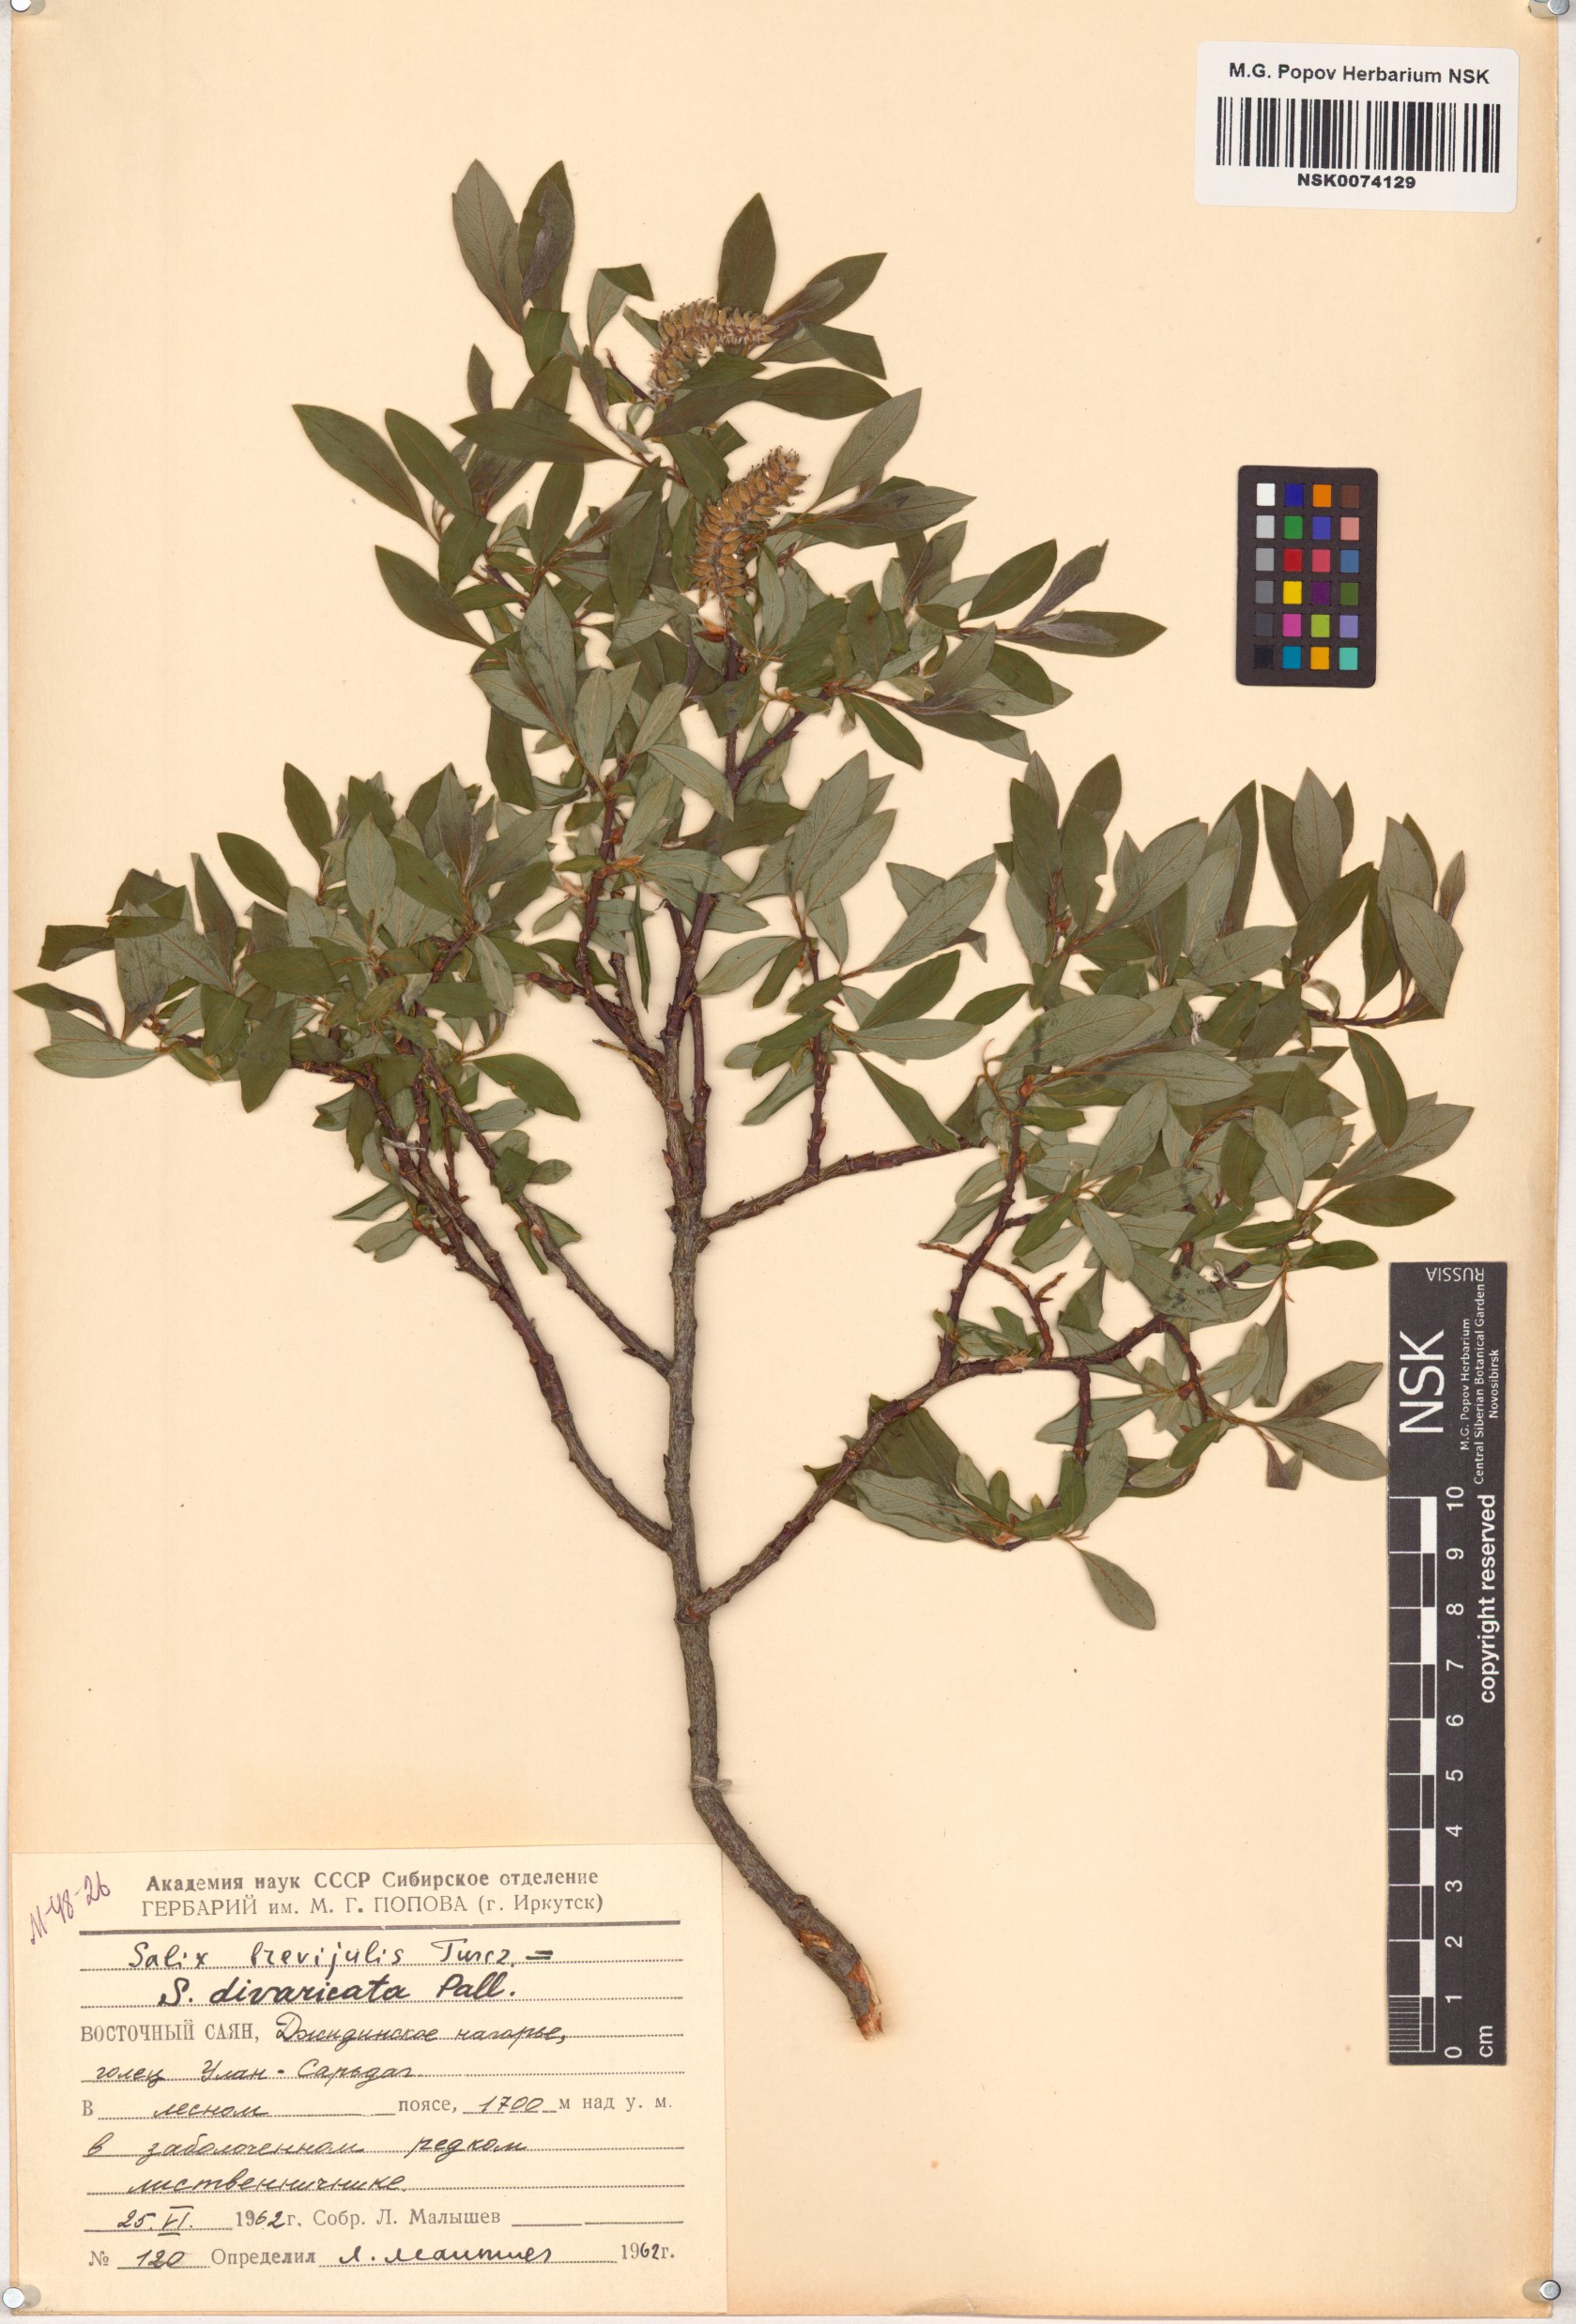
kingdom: Plantae
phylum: Tracheophyta
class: Magnoliopsida
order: Malpighiales
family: Salicaceae
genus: Salix
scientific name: Salix divaricata
